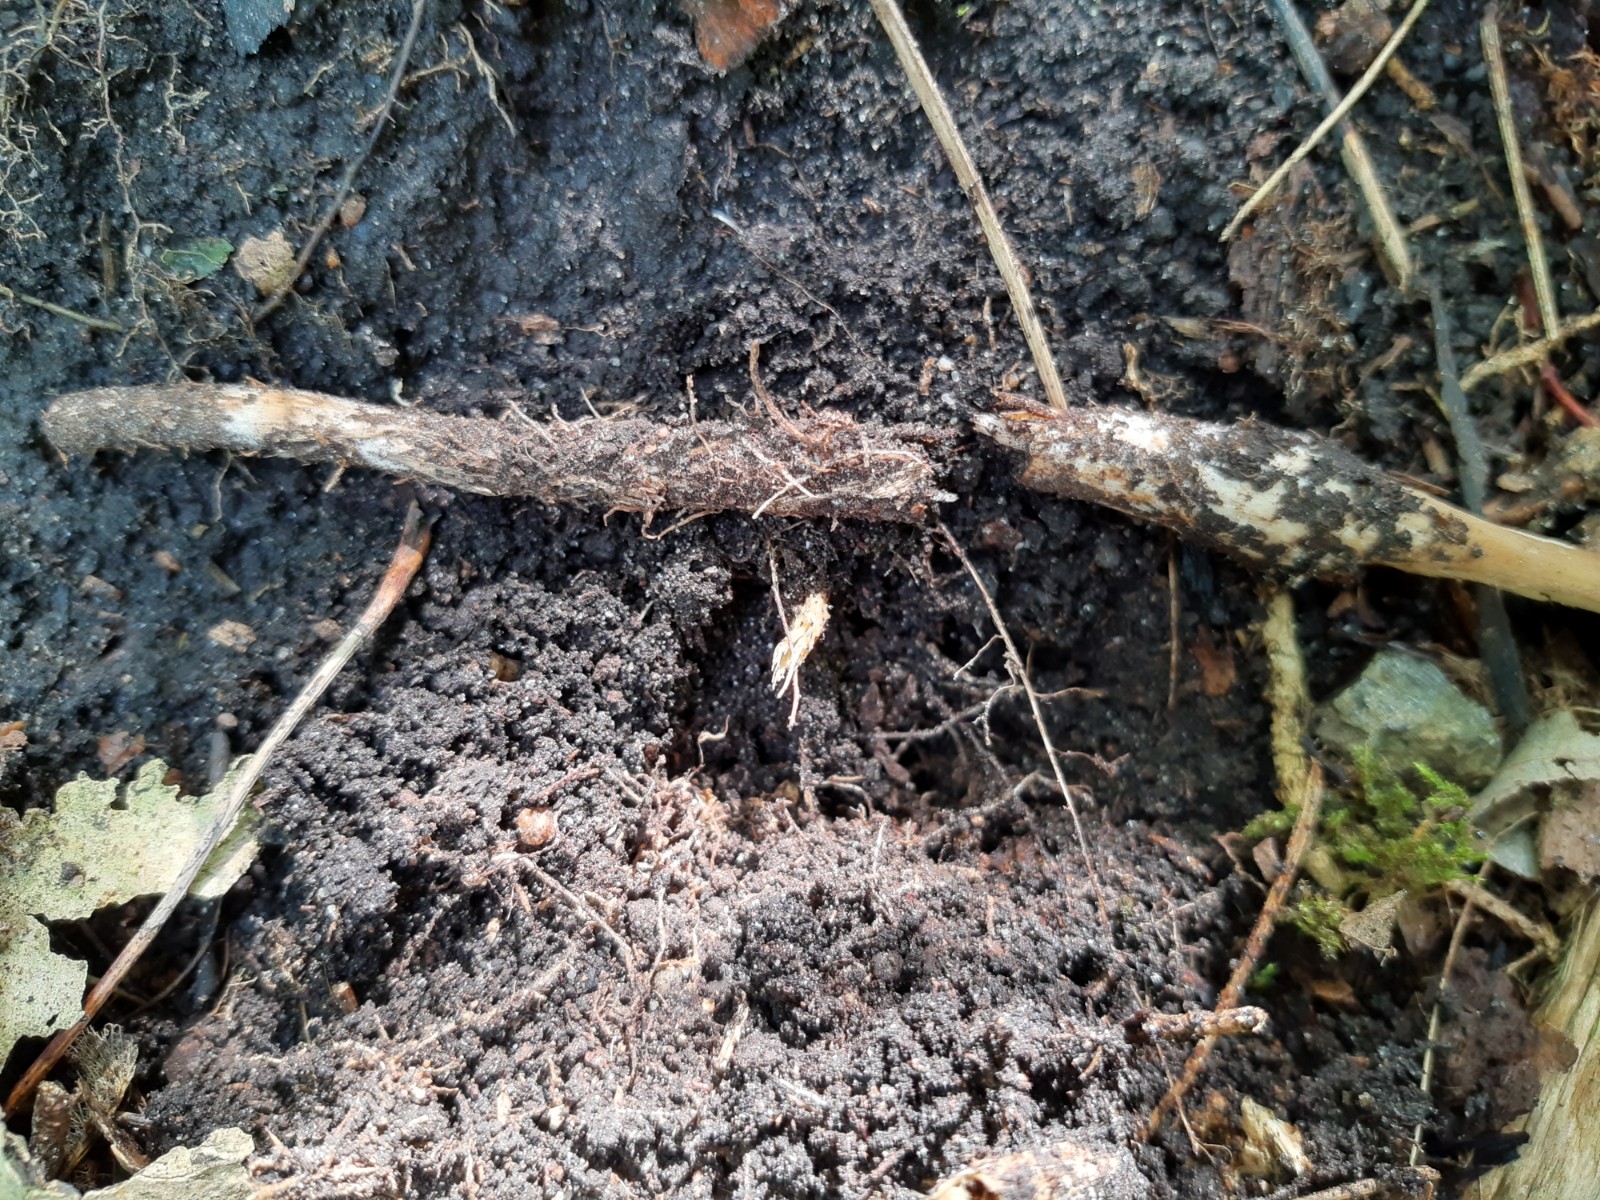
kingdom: Fungi
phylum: Basidiomycota
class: Agaricomycetes
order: Agaricales
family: Physalacriaceae
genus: Hymenopellis
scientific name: Hymenopellis radicata
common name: almindelig pælerodshat
